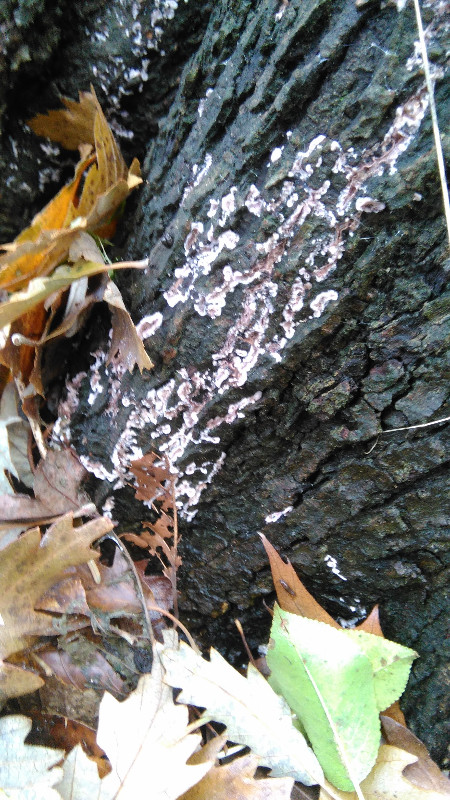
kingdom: Fungi
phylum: Basidiomycota
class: Agaricomycetes
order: Agaricales
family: Cyphellaceae
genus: Chondrostereum
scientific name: Chondrostereum purpureum
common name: purpurlædersvamp
